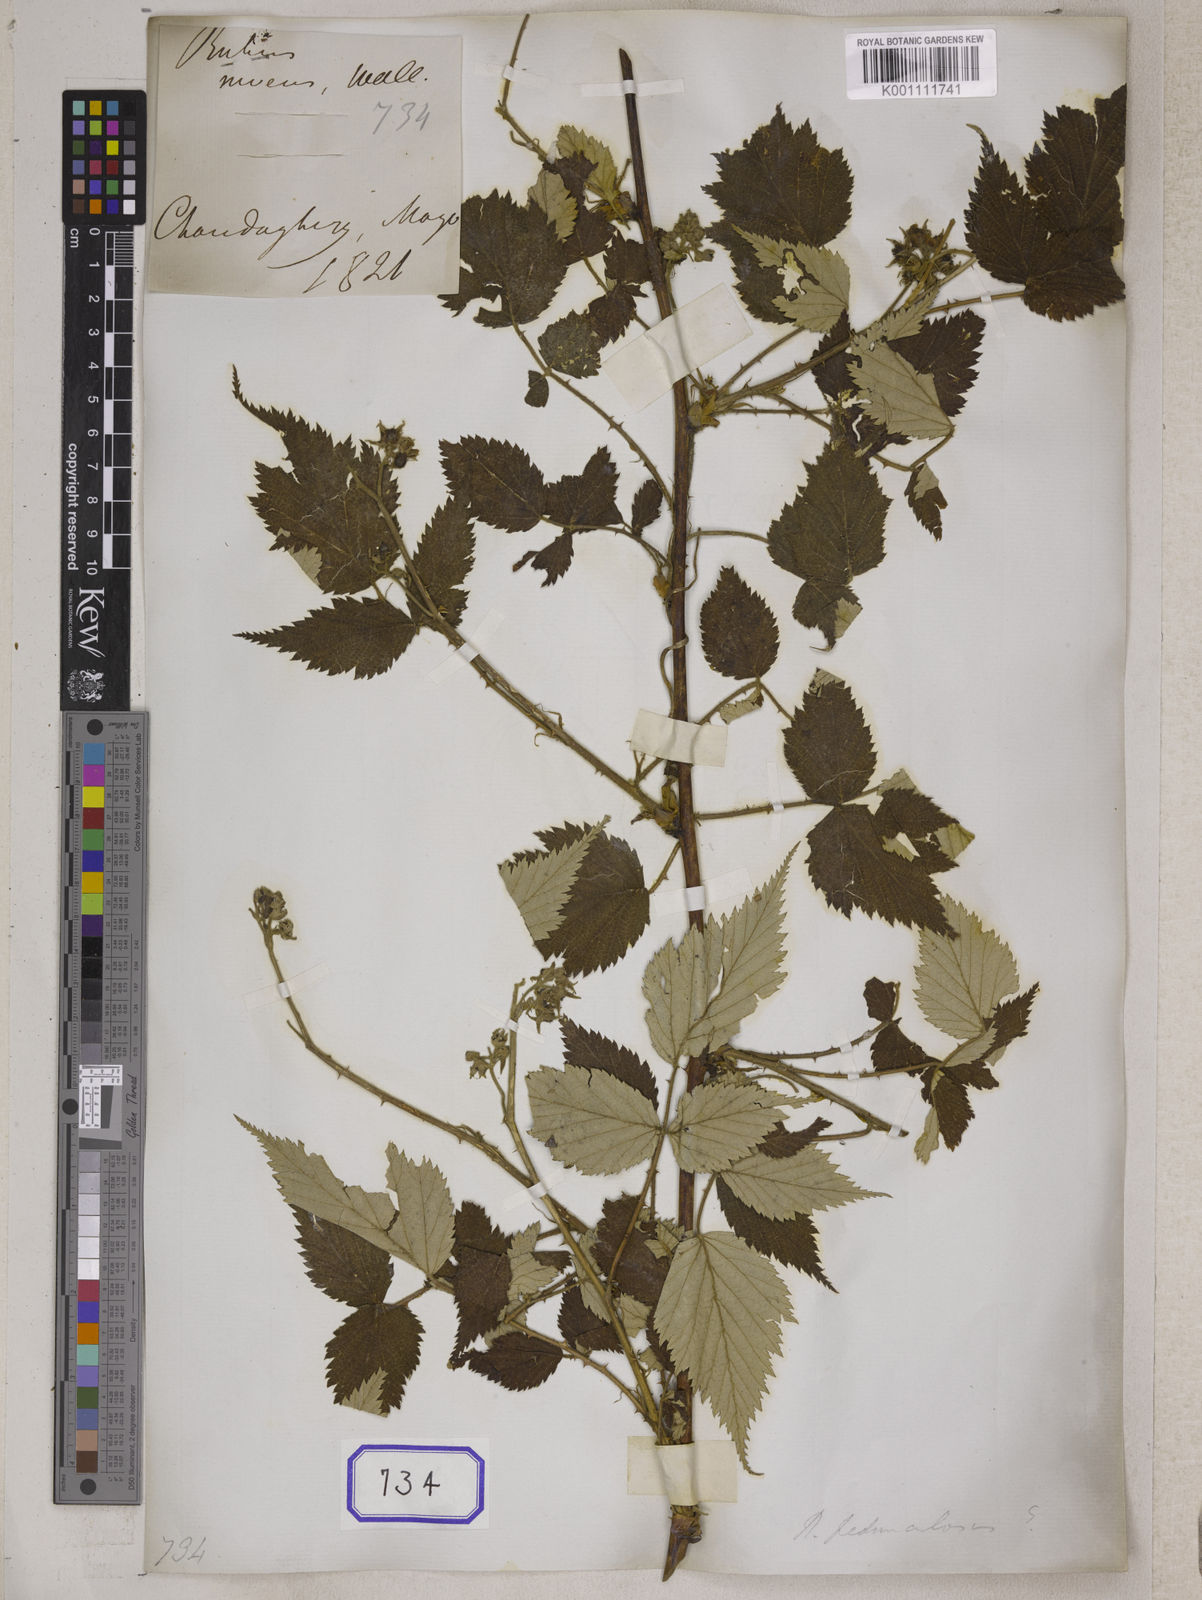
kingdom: Plantae
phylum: Tracheophyta
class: Magnoliopsida
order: Rosales
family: Rosaceae
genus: Rubus
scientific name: Rubus
